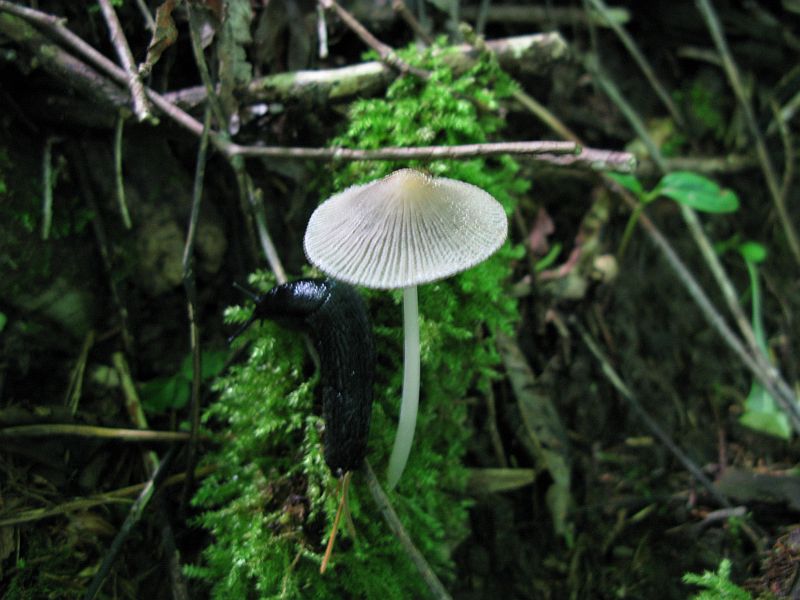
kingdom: Fungi
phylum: Basidiomycota
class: Agaricomycetes
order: Agaricales
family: Psathyrellaceae
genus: Coprinellus
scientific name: Coprinellus domesticus
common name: hus-blækhat
